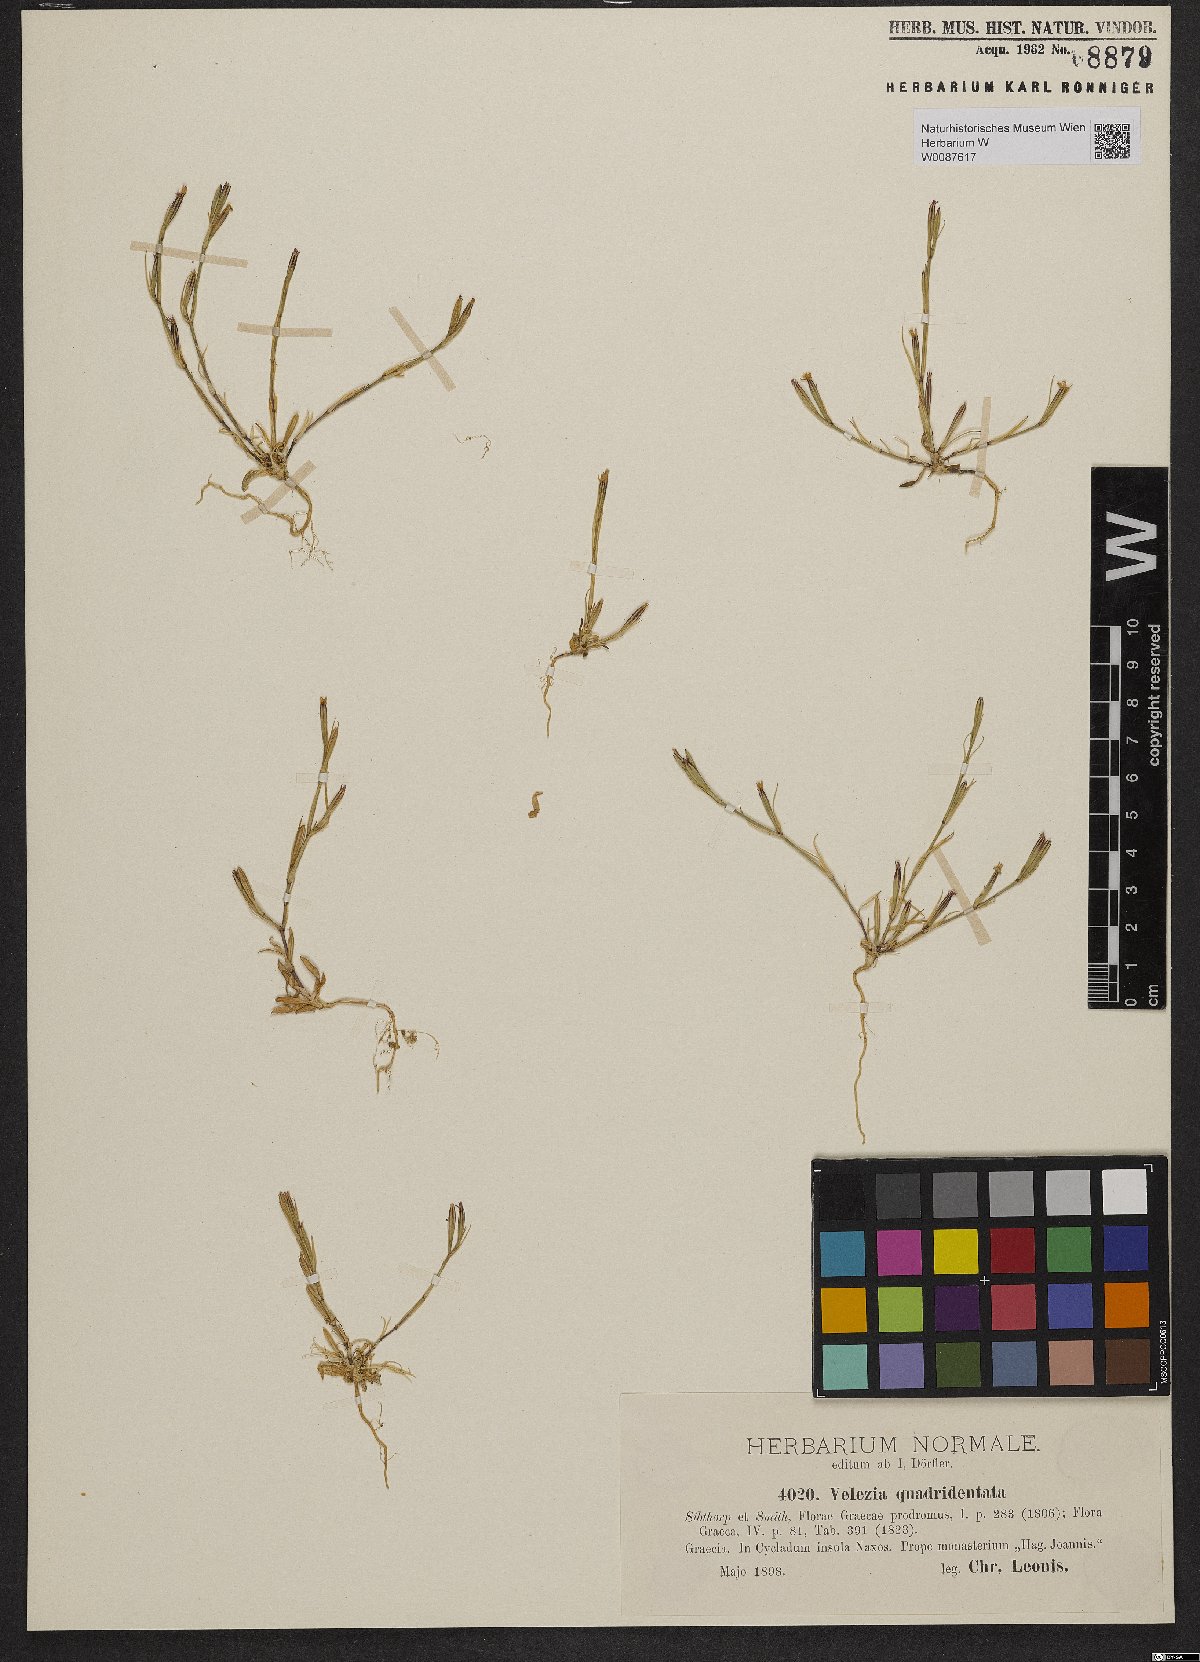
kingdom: Plantae
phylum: Tracheophyta
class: Magnoliopsida
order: Caryophyllales
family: Caryophyllaceae
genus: Dianthus
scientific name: Dianthus quadridentatus
